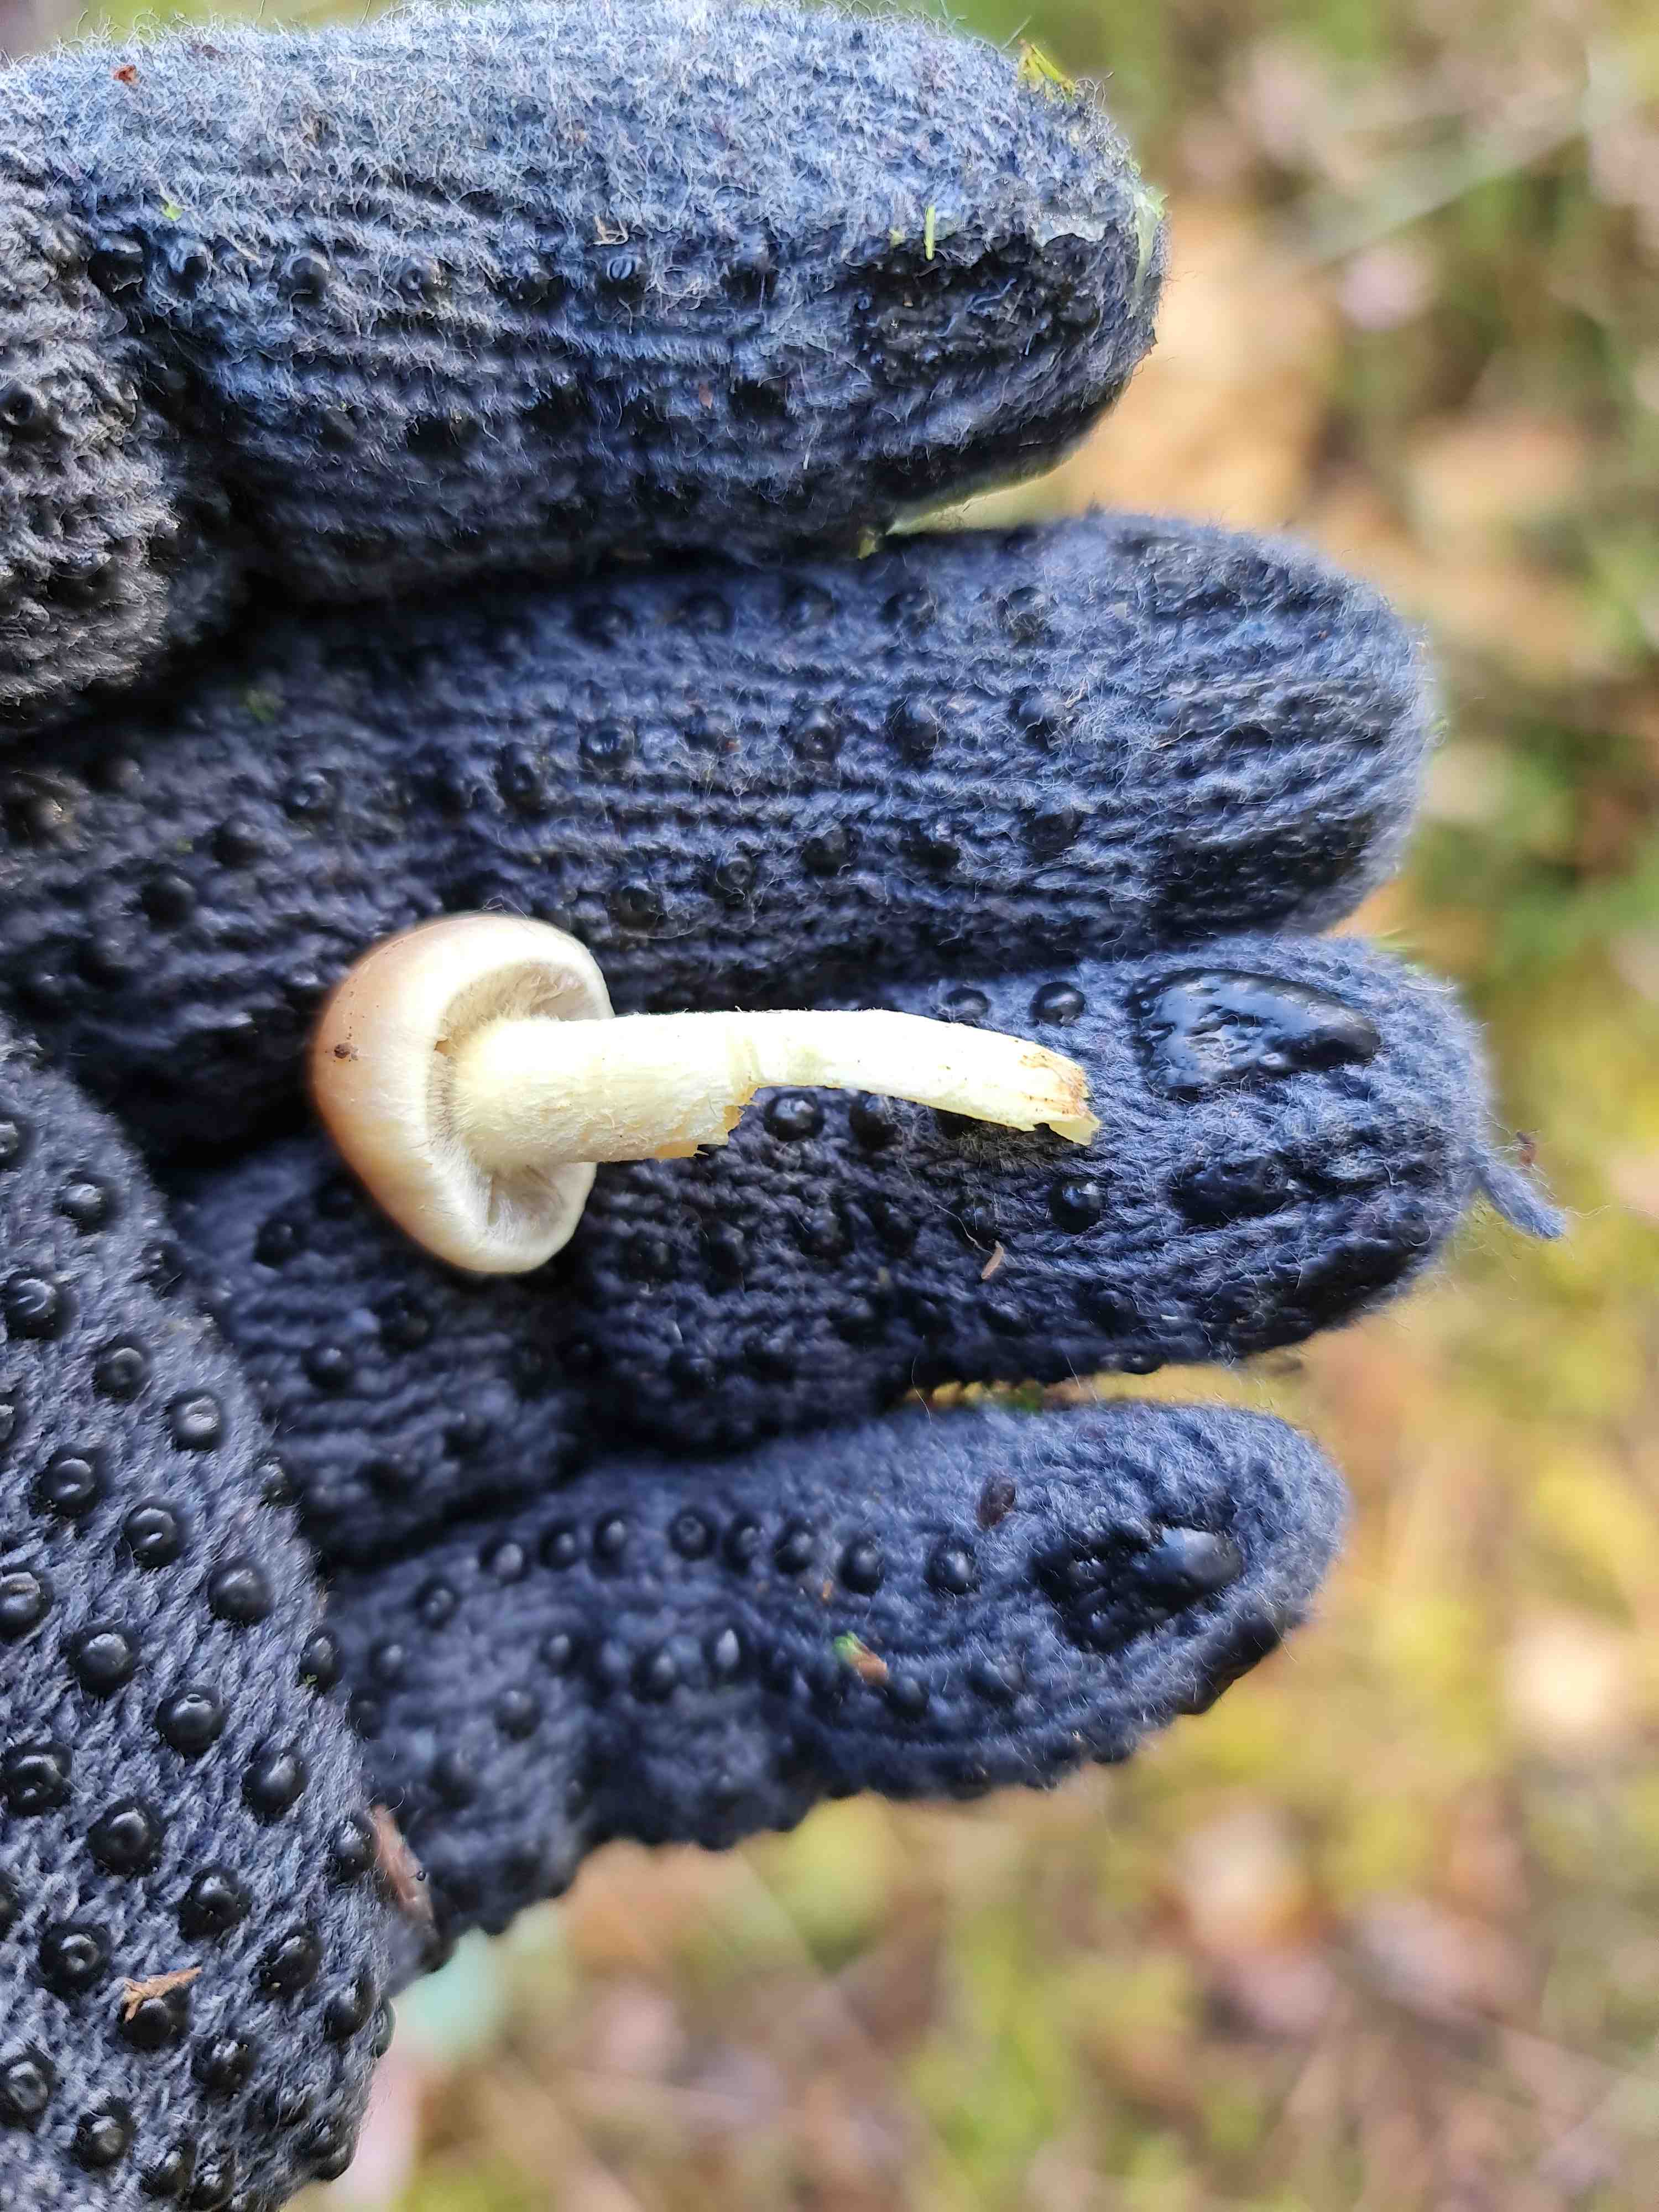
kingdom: Fungi
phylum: Basidiomycota
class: Agaricomycetes
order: Agaricales
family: Strophariaceae
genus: Hypholoma
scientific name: Hypholoma
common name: svovlhat
